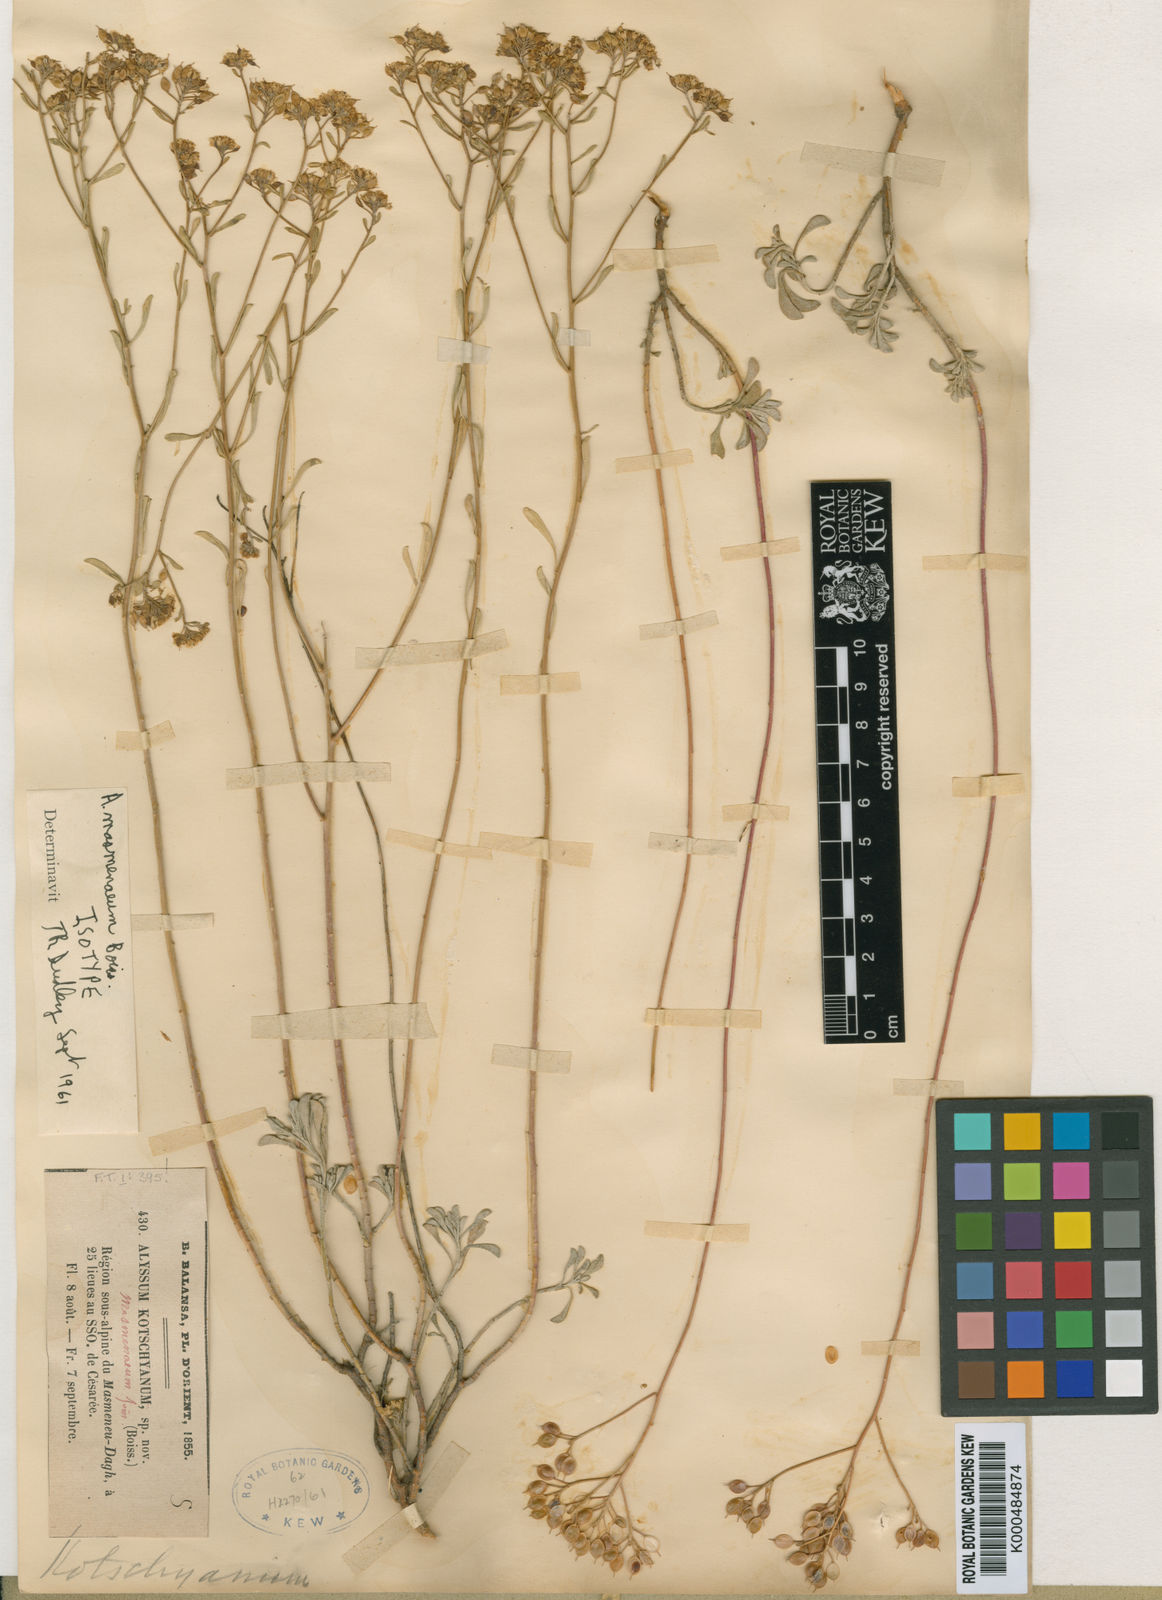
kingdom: Plantae
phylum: Tracheophyta
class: Magnoliopsida
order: Brassicales
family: Brassicaceae
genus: Odontarrhena
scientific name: Odontarrhena muralis
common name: Rock alyssum
